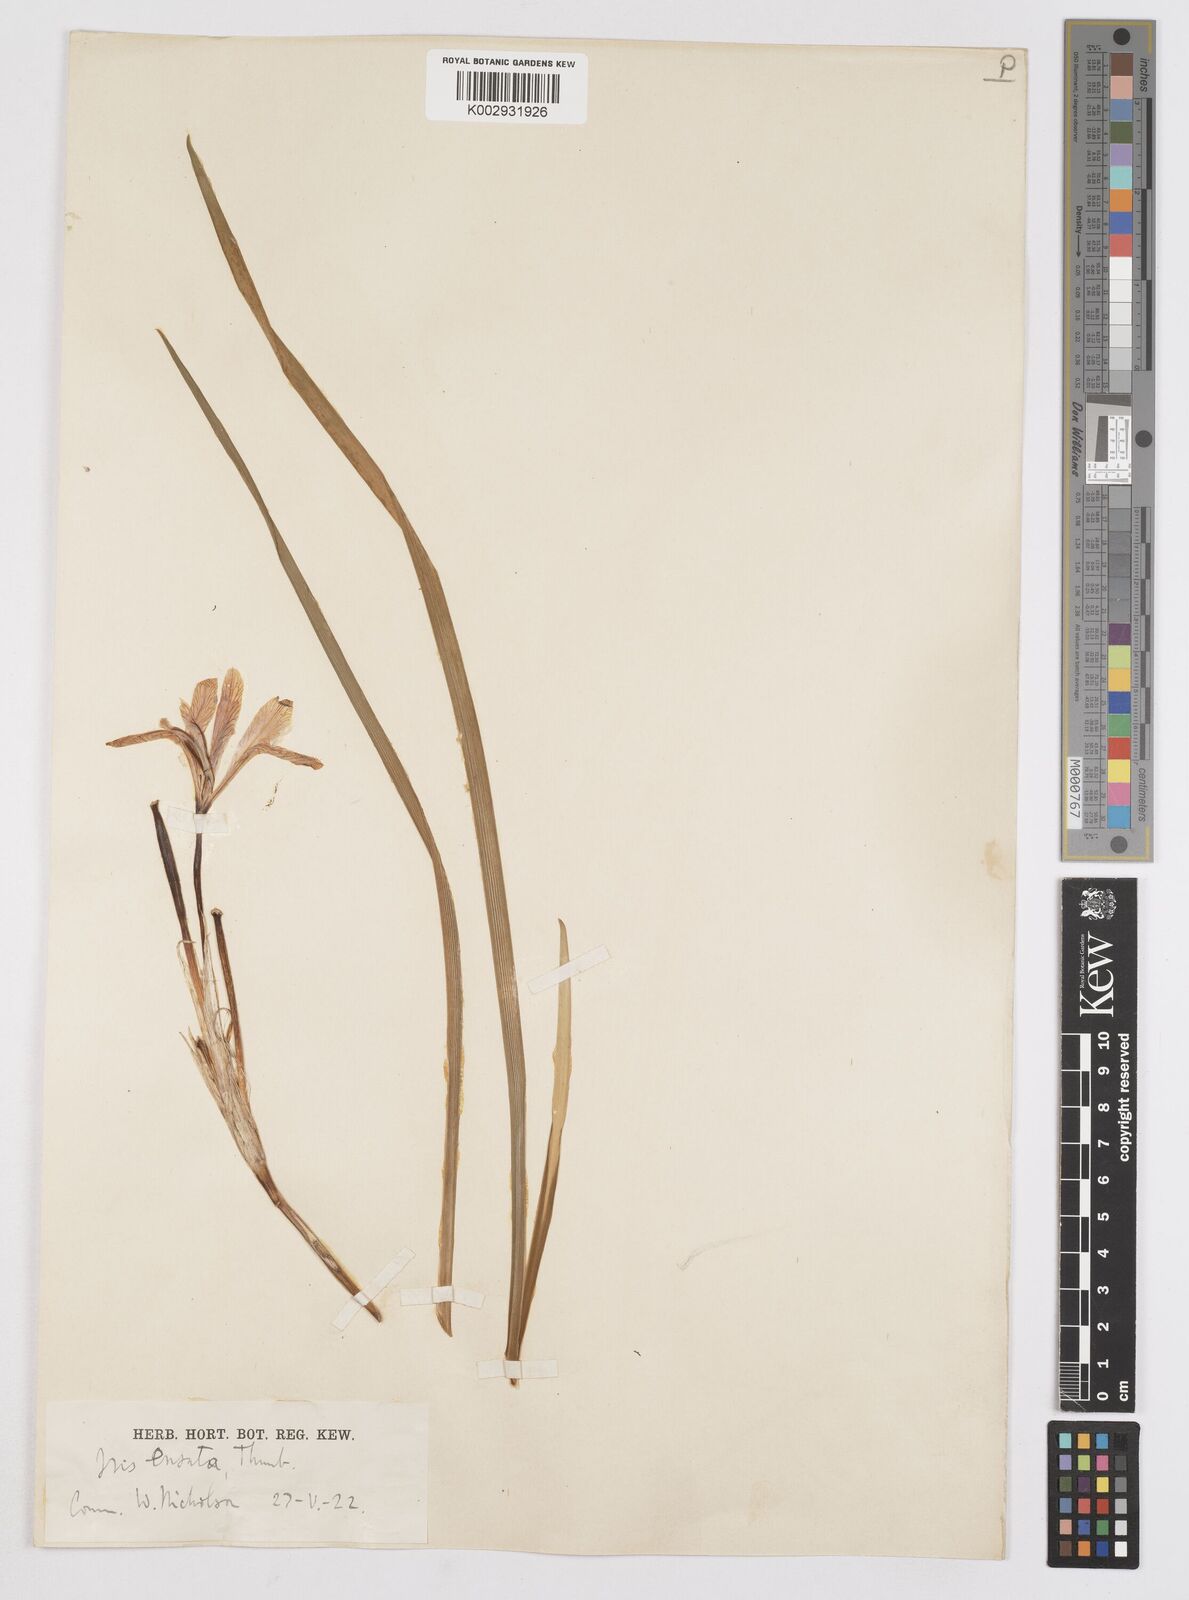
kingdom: Plantae
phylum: Tracheophyta
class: Liliopsida
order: Asparagales
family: Iridaceae
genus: Iris
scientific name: Iris ensata
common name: Beaked iris
